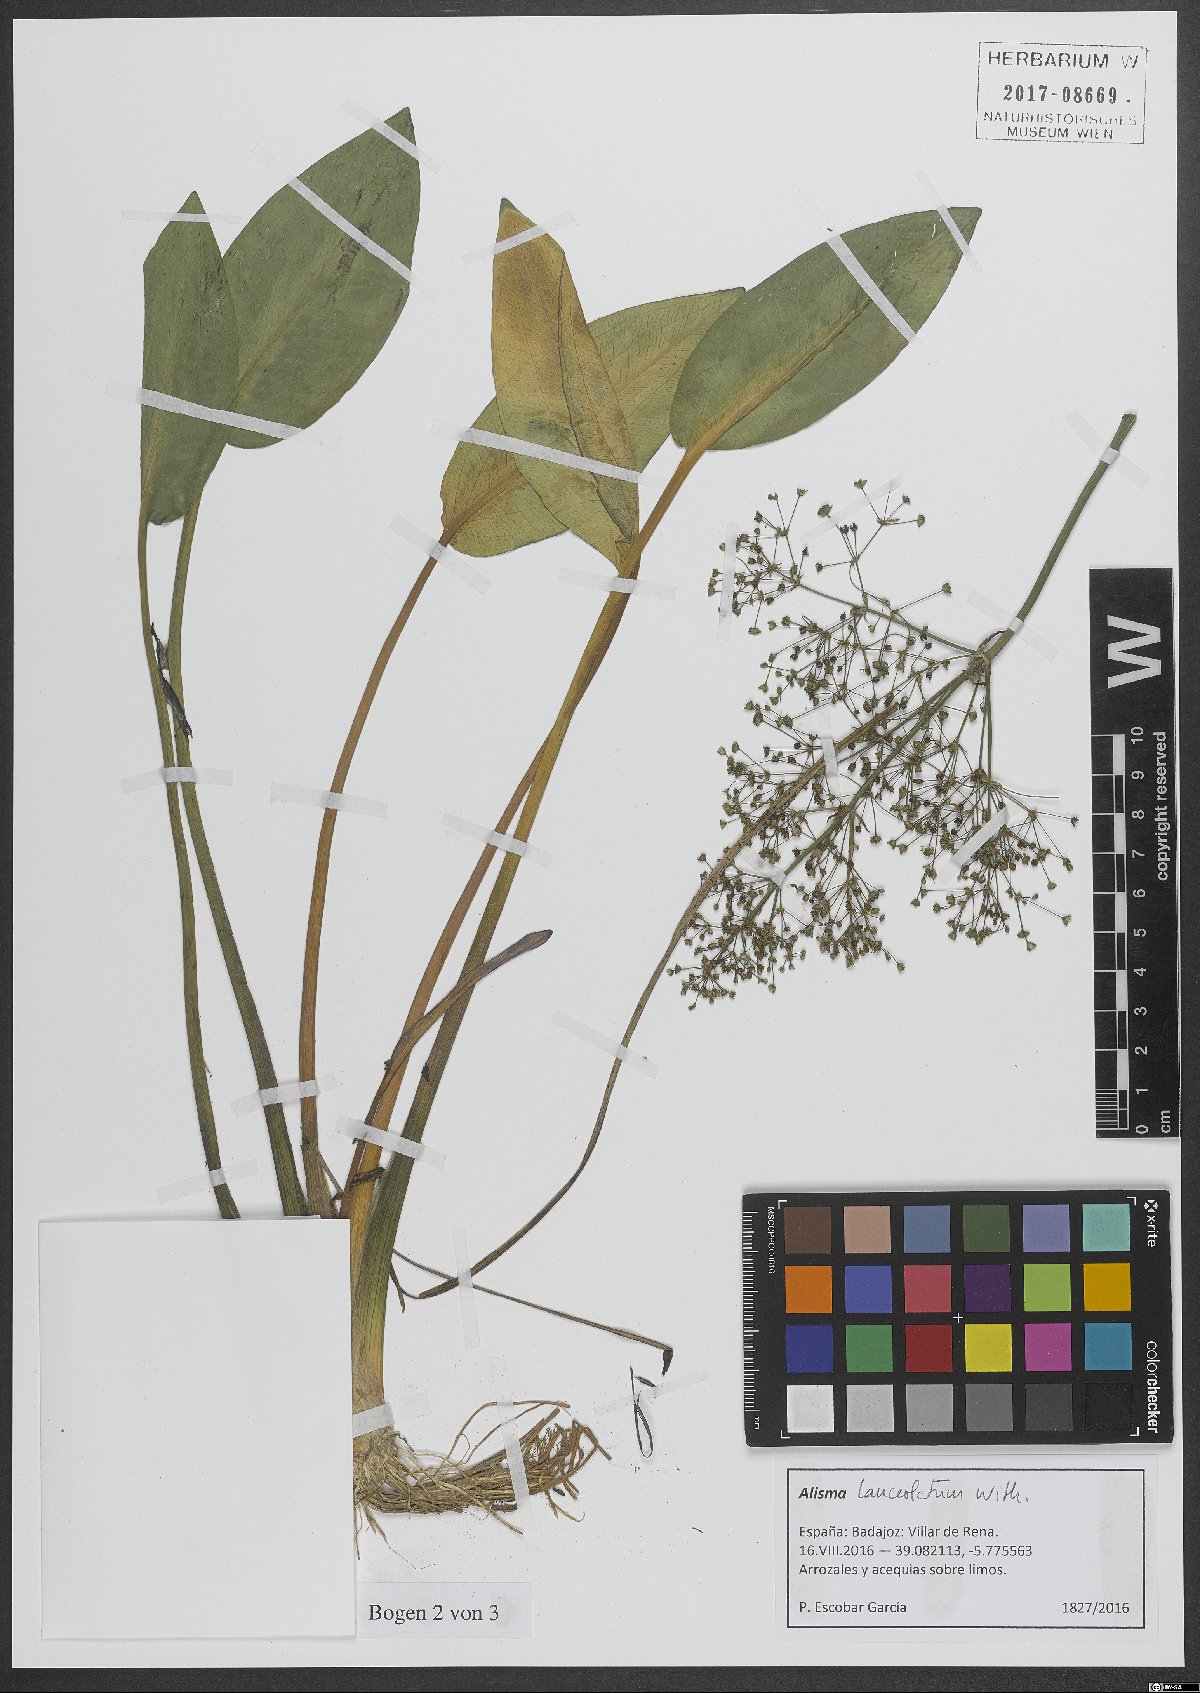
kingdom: Plantae
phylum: Tracheophyta
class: Liliopsida
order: Alismatales
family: Alismataceae
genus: Alisma
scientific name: Alisma lanceolatum
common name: Narrow-leaved water-plantain
